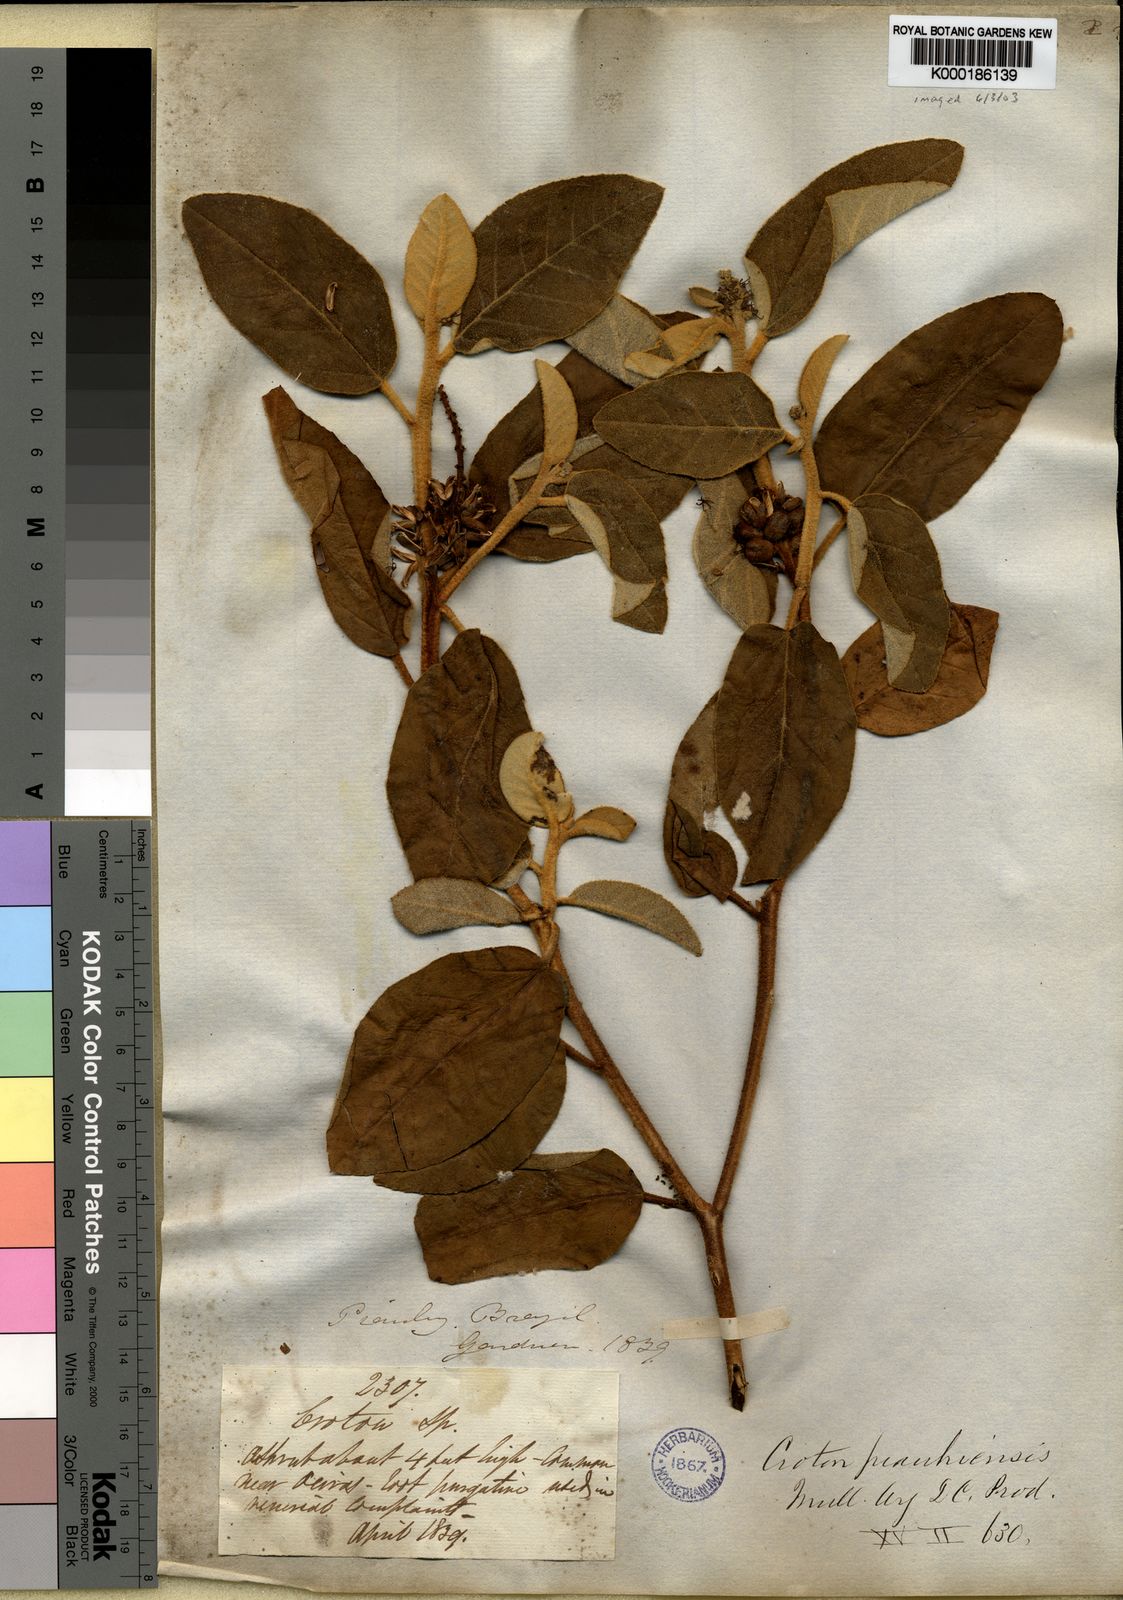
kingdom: Plantae
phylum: Tracheophyta
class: Magnoliopsida
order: Malpighiales
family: Euphorbiaceae
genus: Croton
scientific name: Croton
